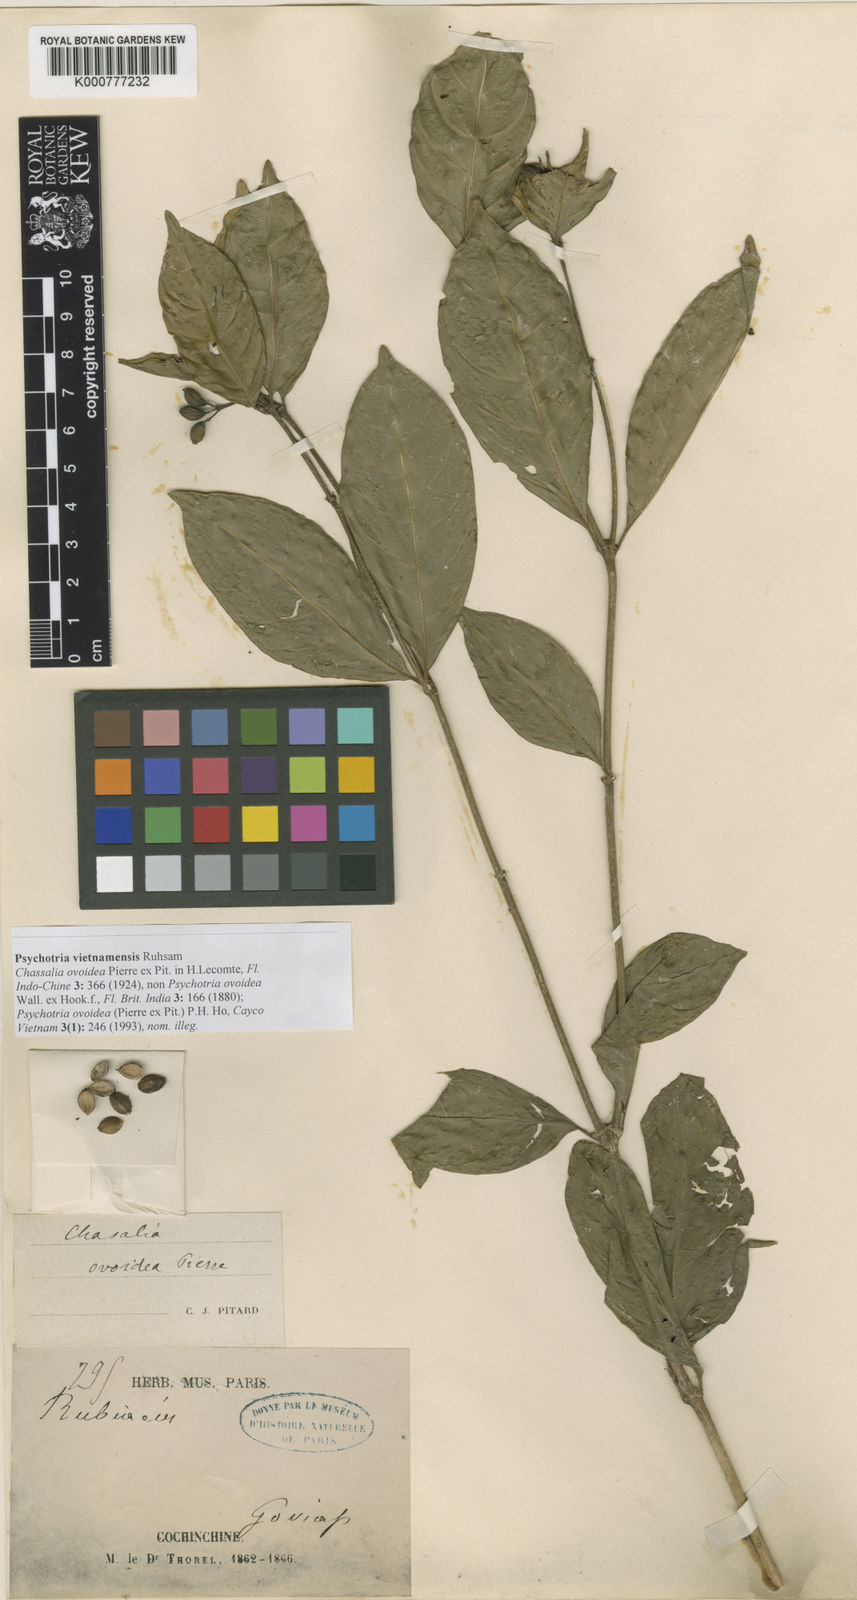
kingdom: Plantae
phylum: Tracheophyta
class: Magnoliopsida
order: Gentianales
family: Rubiaceae
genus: Eumachia
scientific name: Eumachia montana
